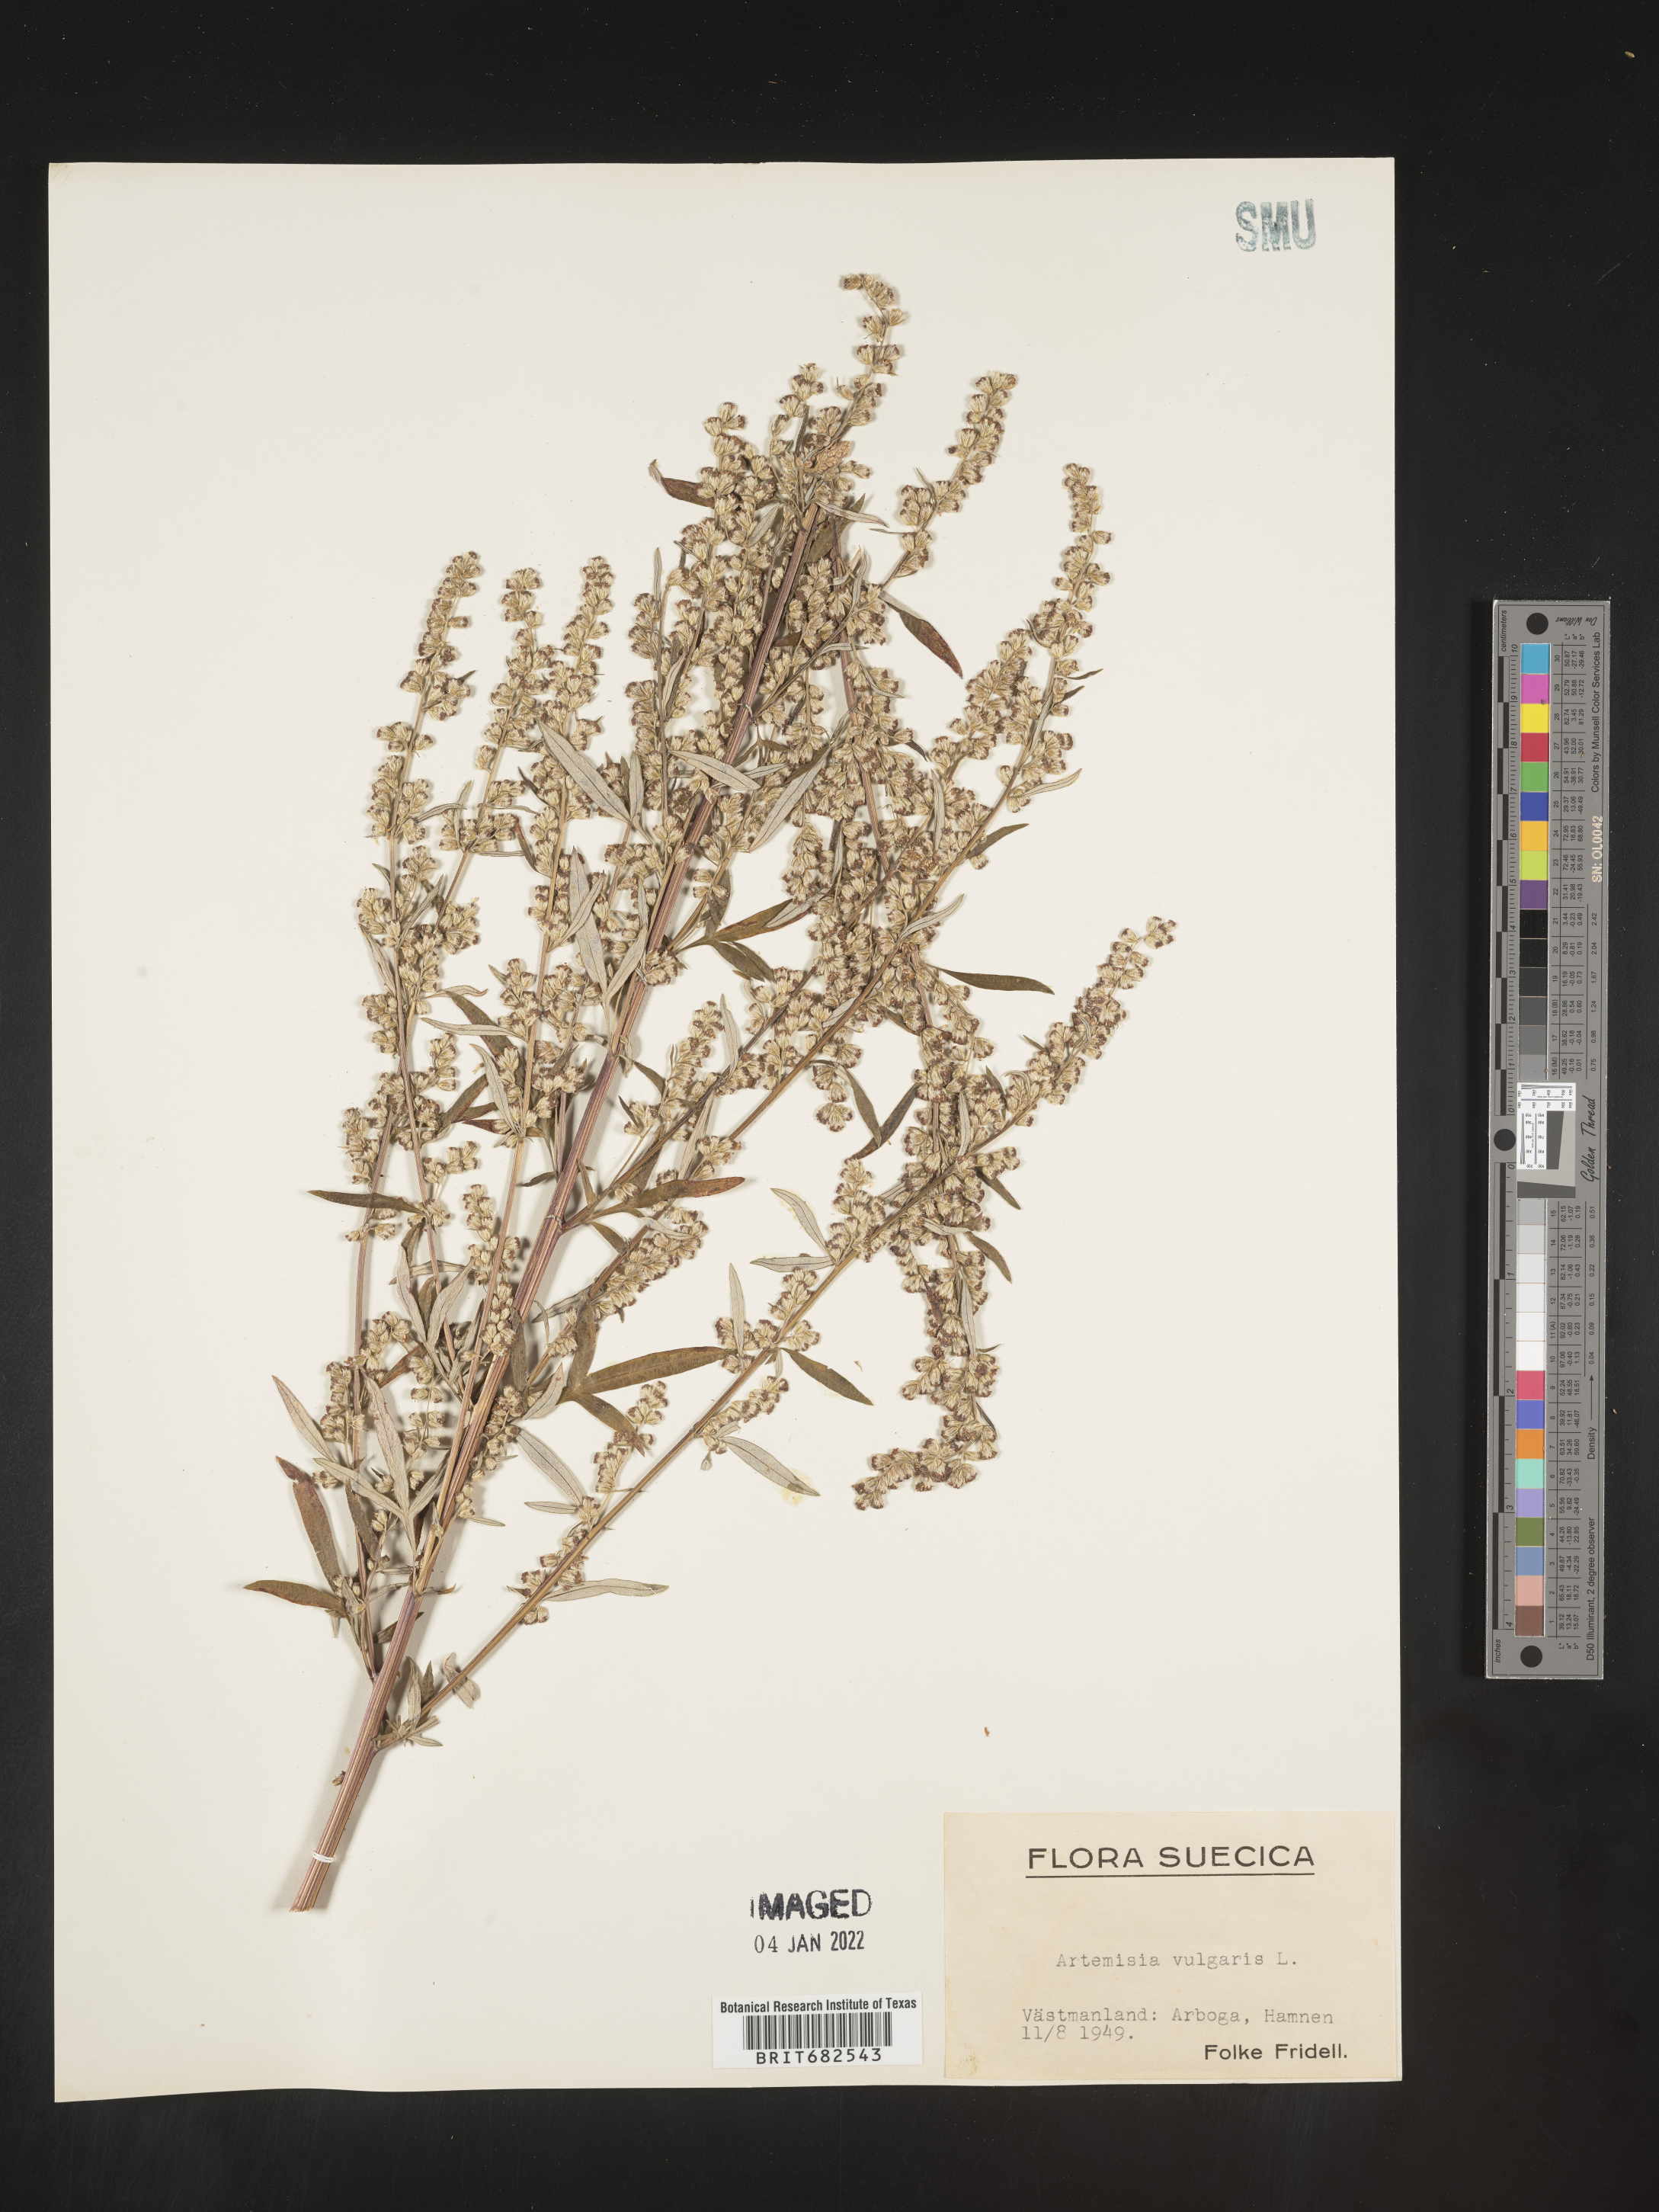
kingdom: Plantae
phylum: Tracheophyta
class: Magnoliopsida
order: Asterales
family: Asteraceae
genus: Artemisia
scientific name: Artemisia
